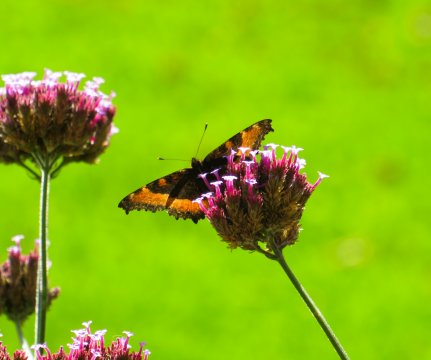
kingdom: Animalia
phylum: Arthropoda
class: Insecta
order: Lepidoptera
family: Nymphalidae
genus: Aglais
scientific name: Aglais milberti
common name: Milbert's Tortoiseshell
